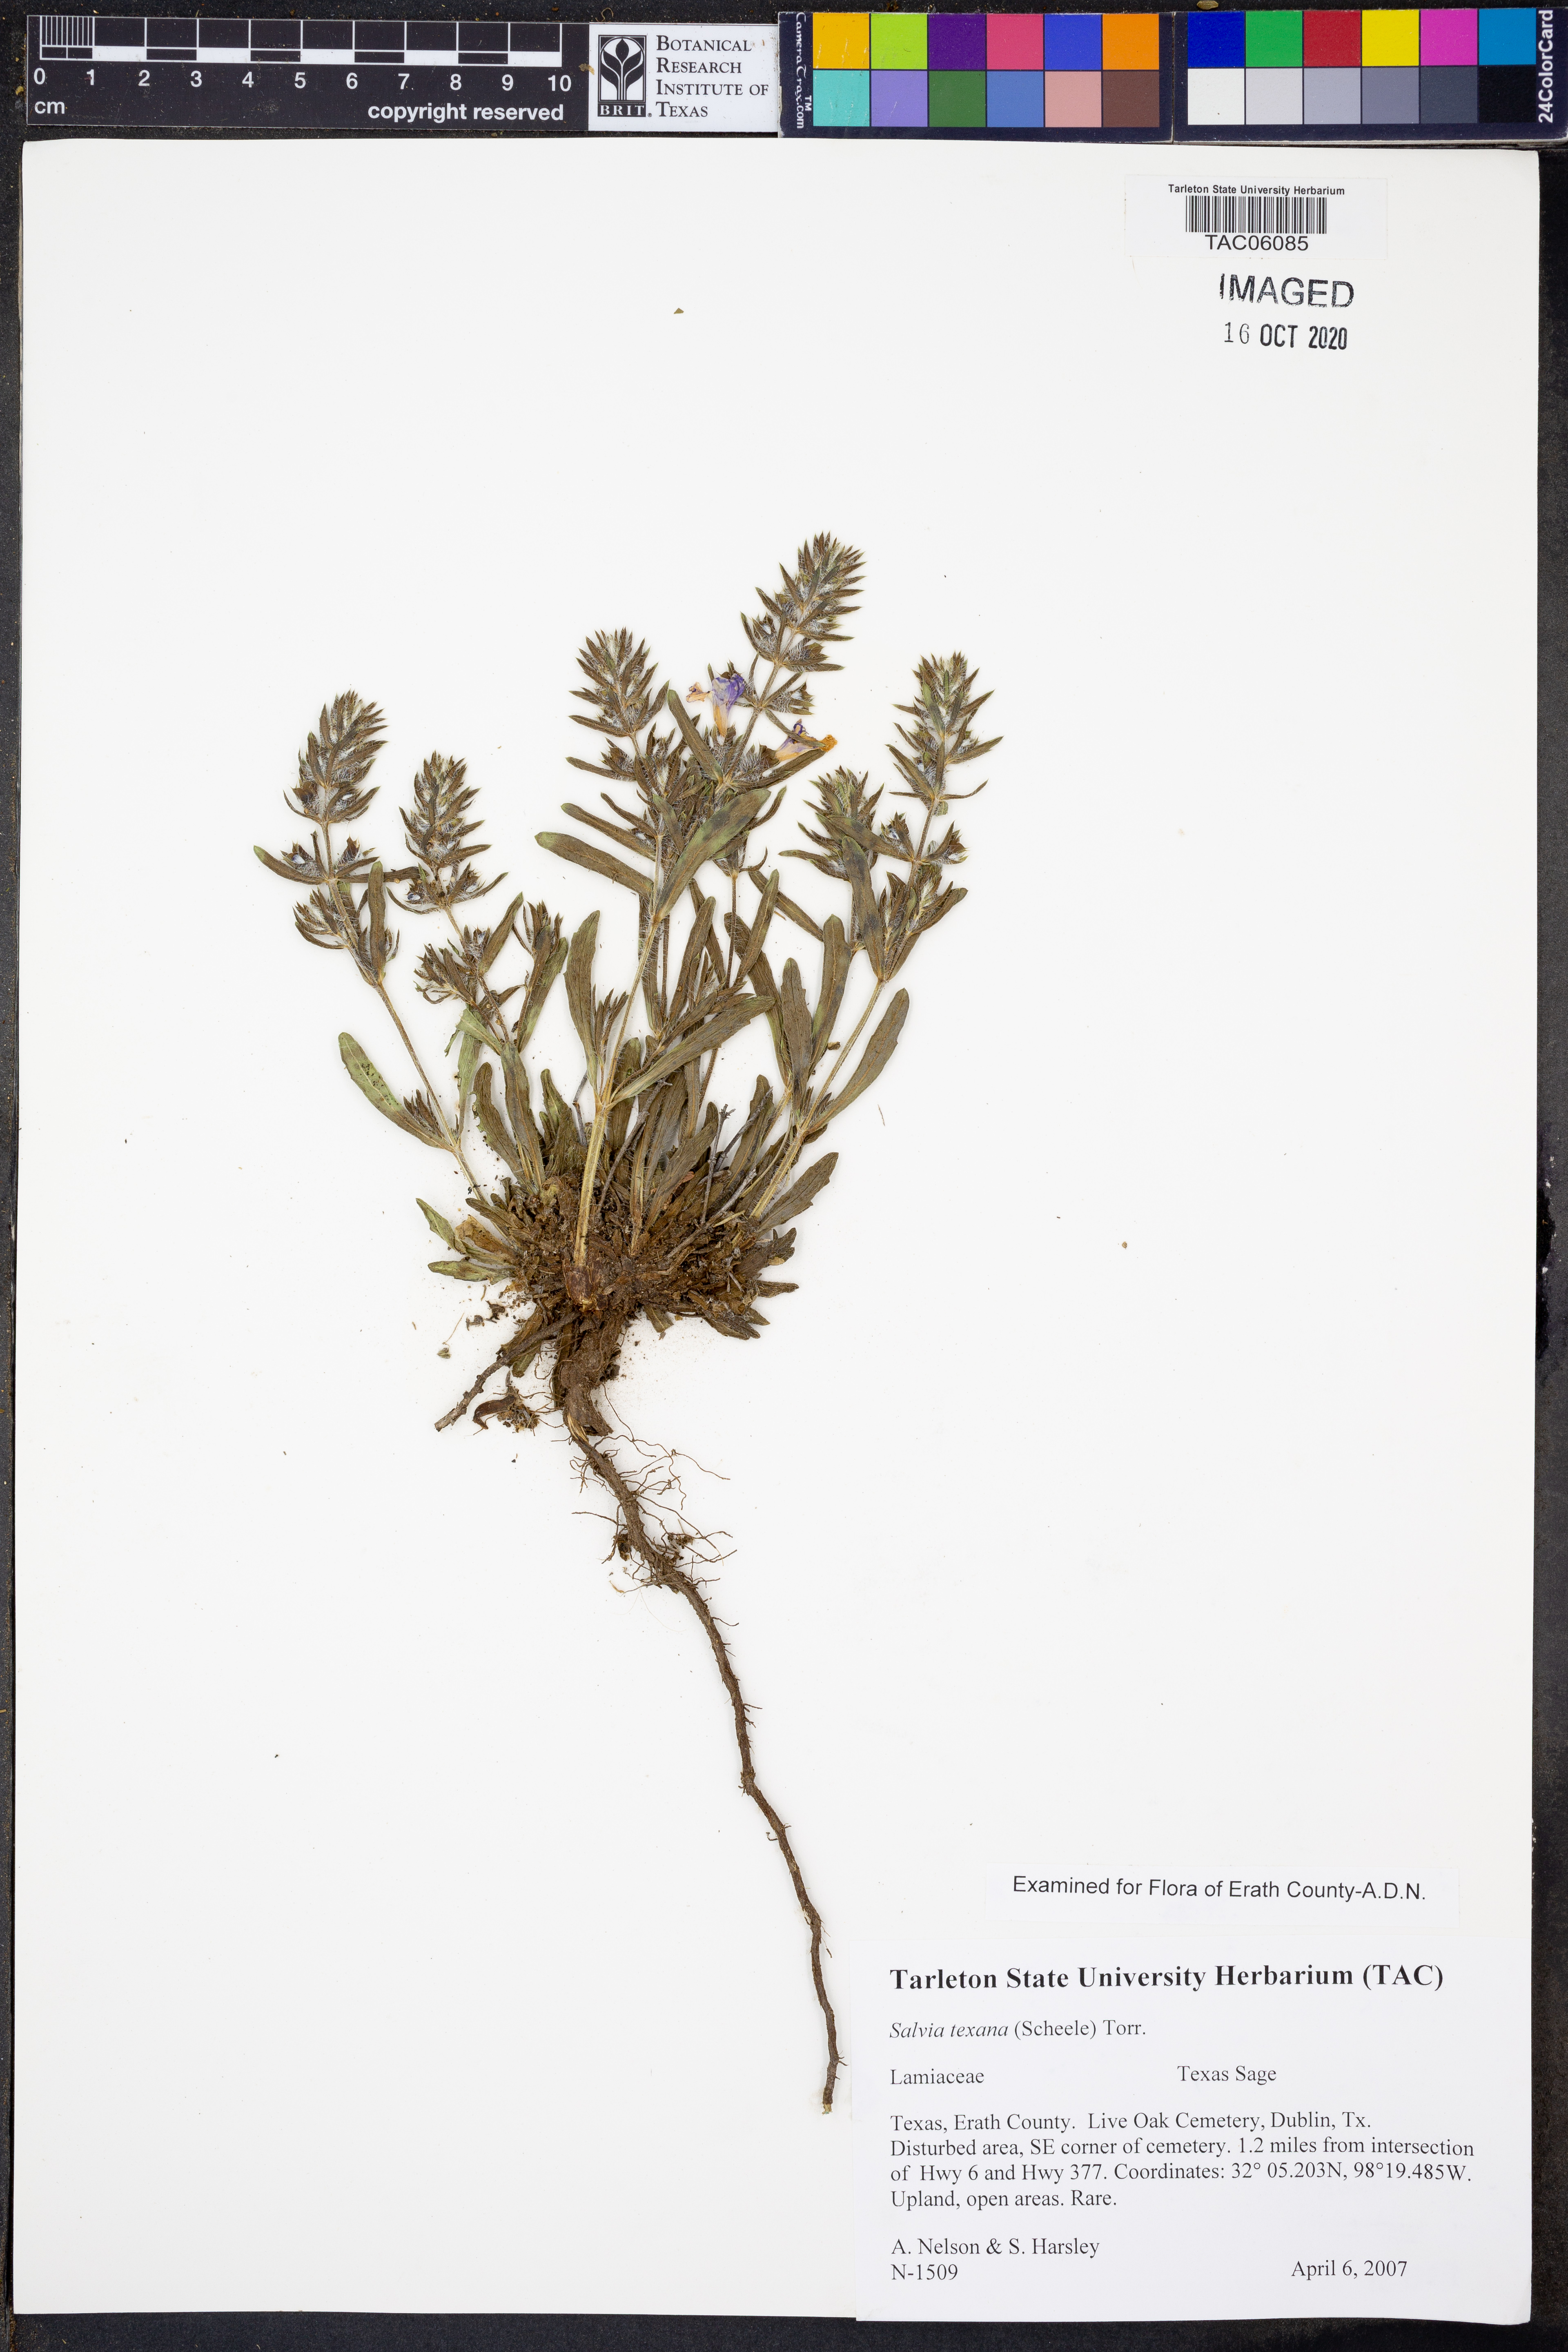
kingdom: Plantae
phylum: Tracheophyta
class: Magnoliopsida
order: Lamiales
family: Lamiaceae
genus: Salvia
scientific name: Salvia texana
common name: Texas sage
